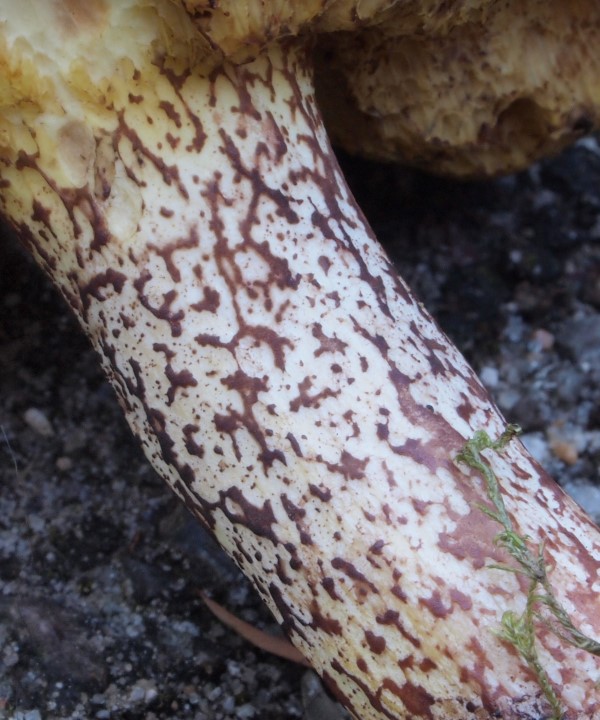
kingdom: Fungi
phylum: Basidiomycota
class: Agaricomycetes
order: Boletales
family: Suillaceae
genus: Suillus
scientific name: Suillus placidus
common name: elfenbens-slimrørhat
